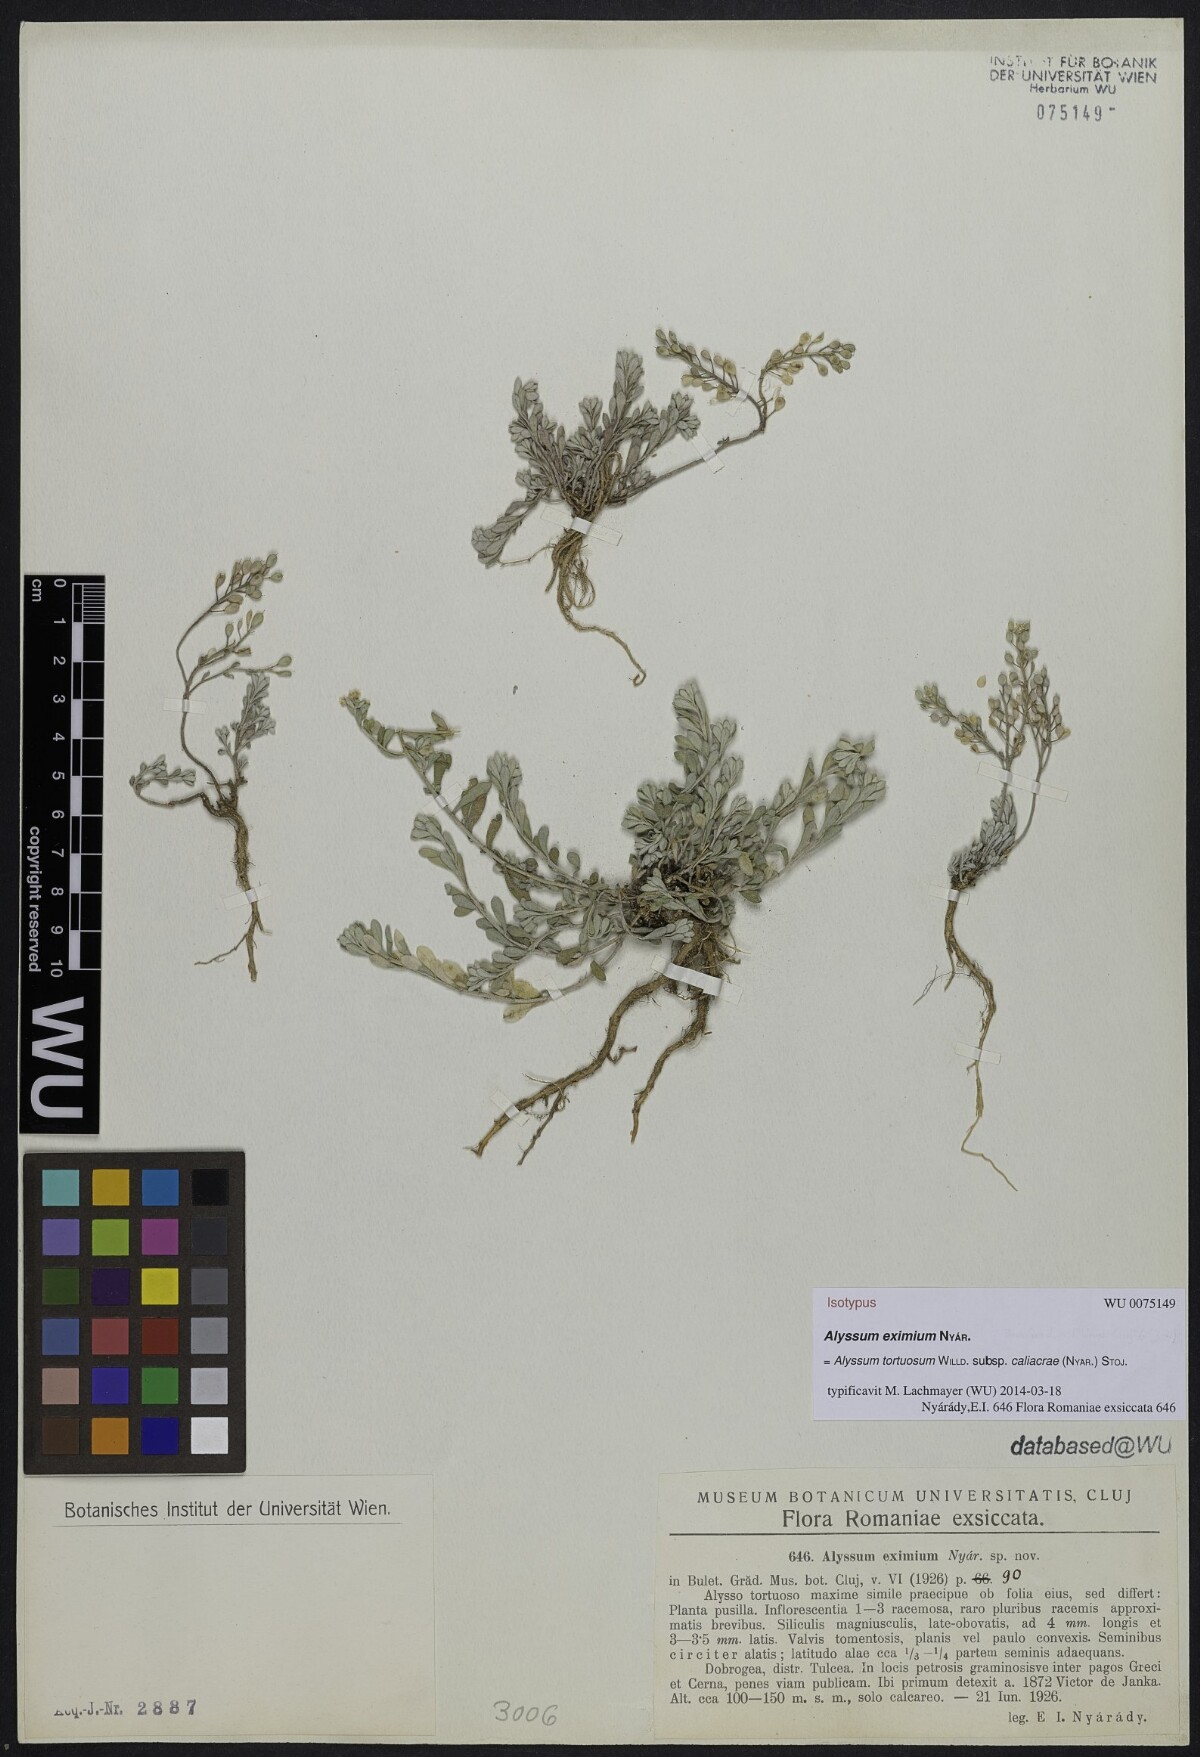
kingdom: Plantae
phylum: Tracheophyta
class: Magnoliopsida
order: Brassicales
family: Brassicaceae
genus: Odontarrhena
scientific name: Odontarrhena caliacrae
